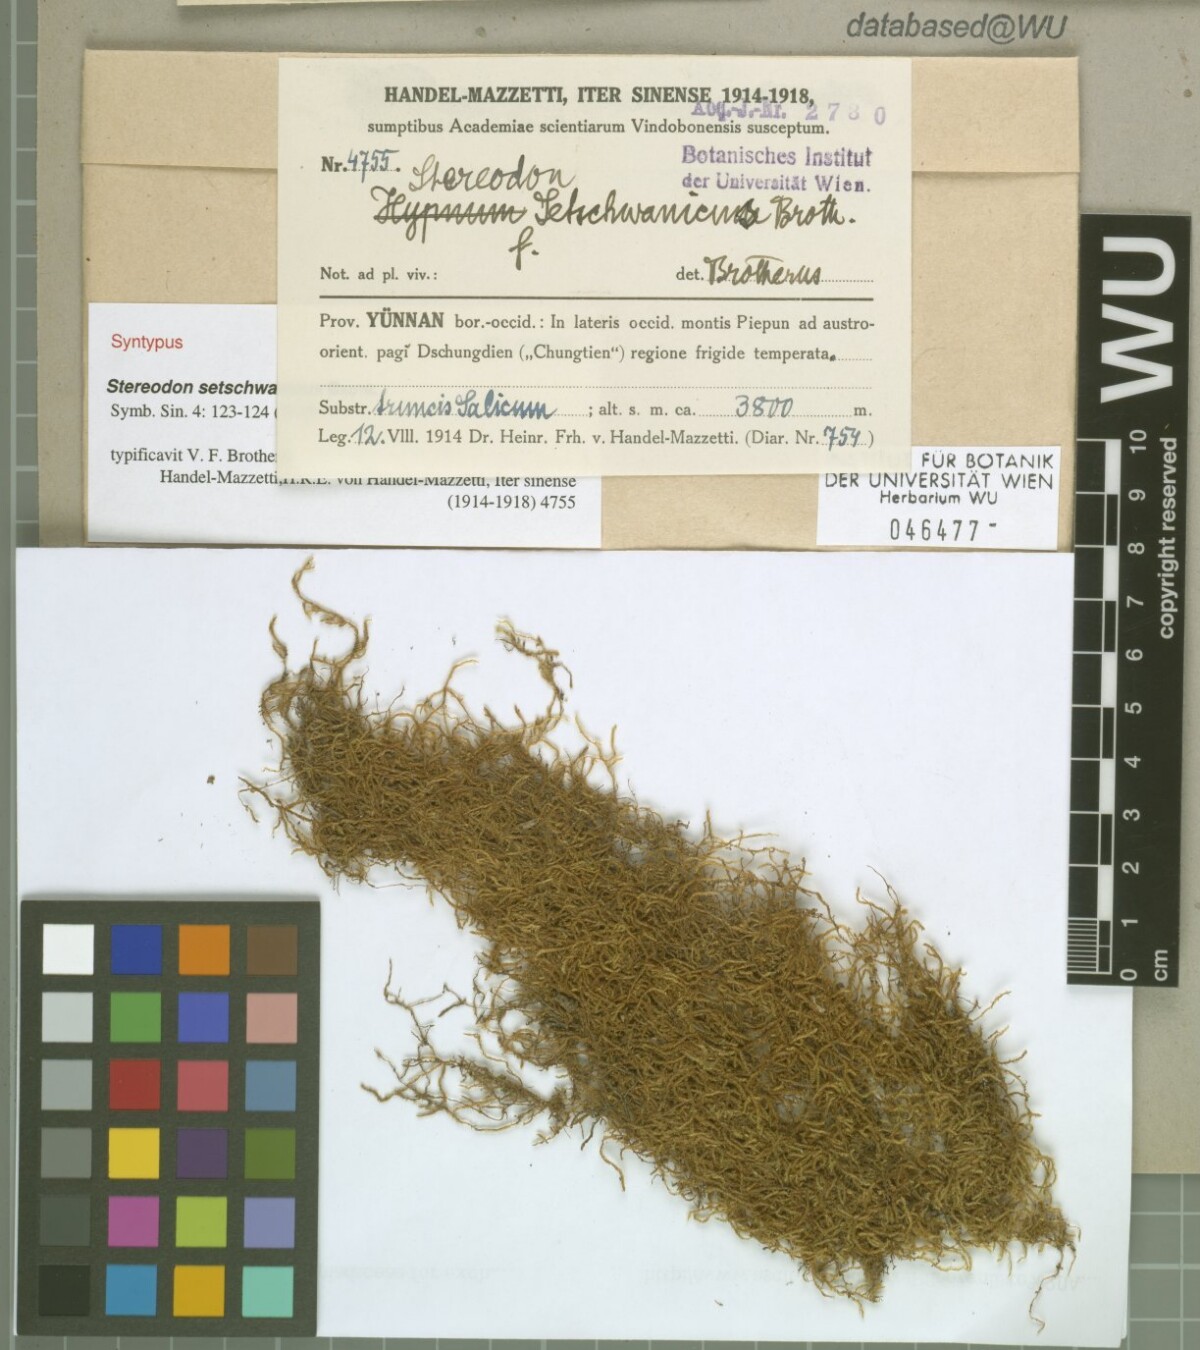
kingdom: Plantae
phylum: Bryophyta
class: Bryopsida
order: Hypnales
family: Hypnaceae
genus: Hypnum
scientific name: Hypnum setschwanicum
